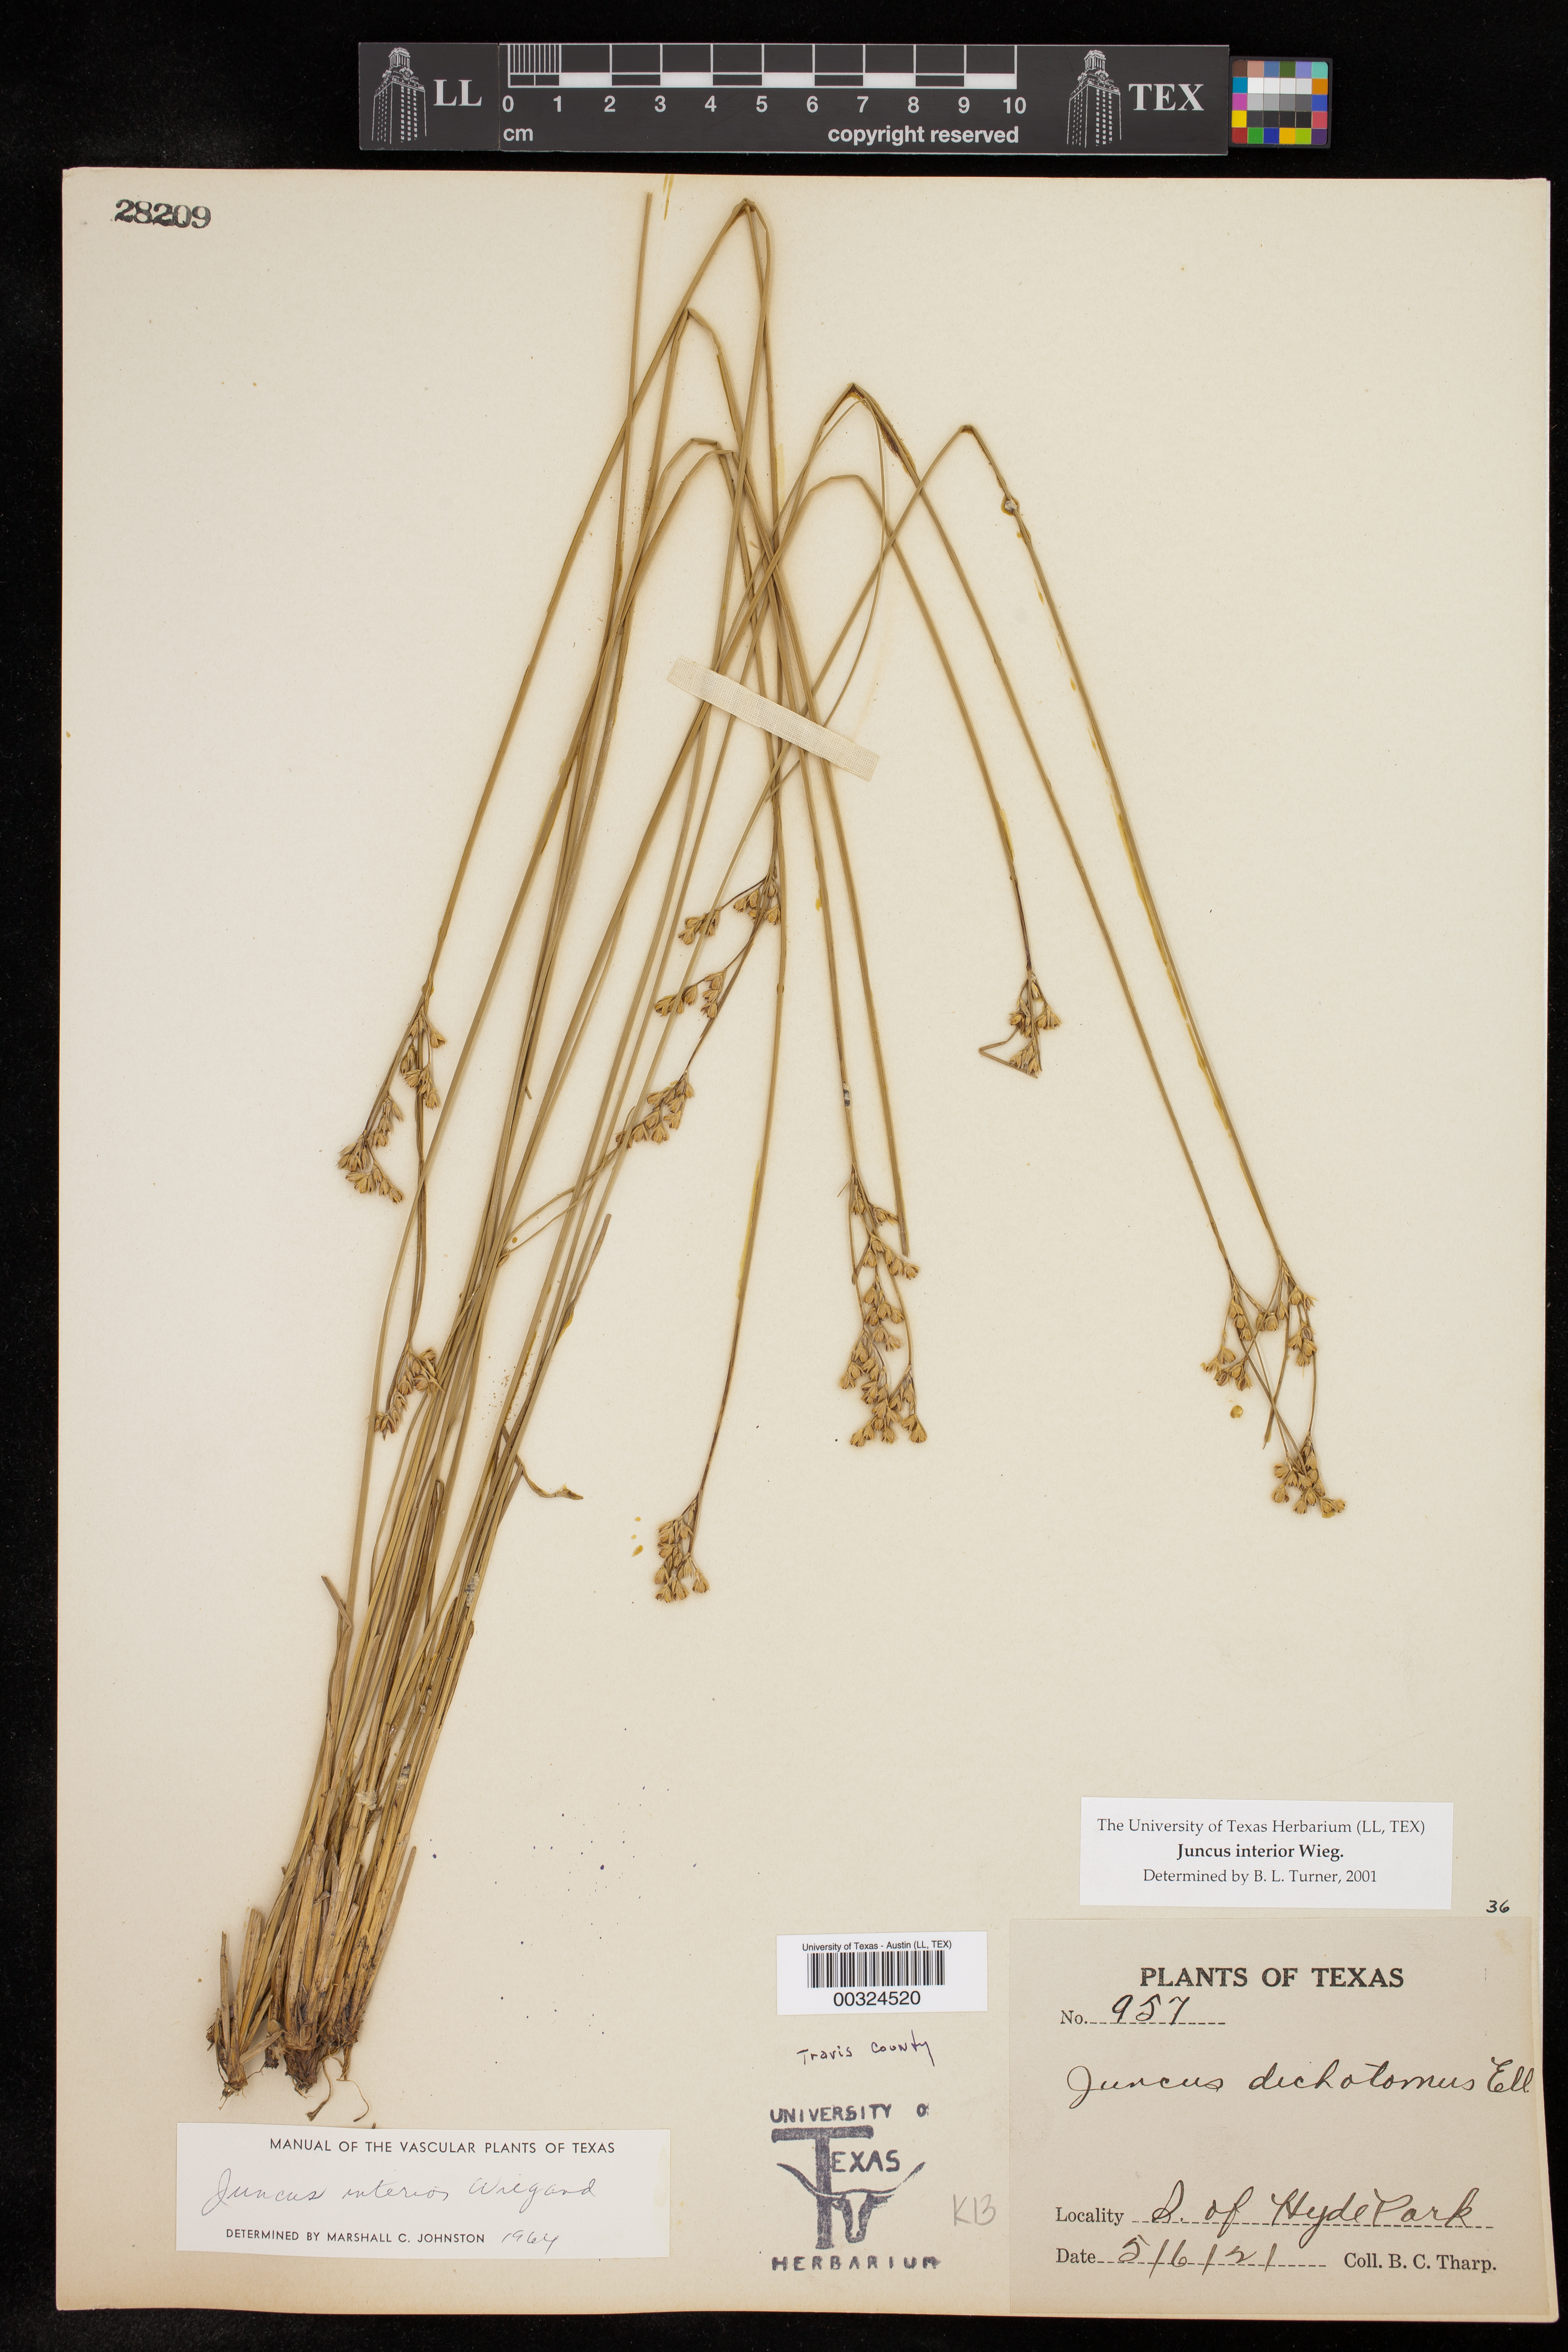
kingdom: Plantae
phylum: Tracheophyta
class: Liliopsida
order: Poales
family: Juncaceae
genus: Juncus
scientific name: Juncus interior
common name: Interior rush
